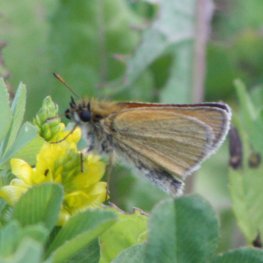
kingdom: Animalia
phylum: Arthropoda
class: Insecta
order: Lepidoptera
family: Hesperiidae
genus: Thymelicus
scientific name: Thymelicus lineola
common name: European Skipper
